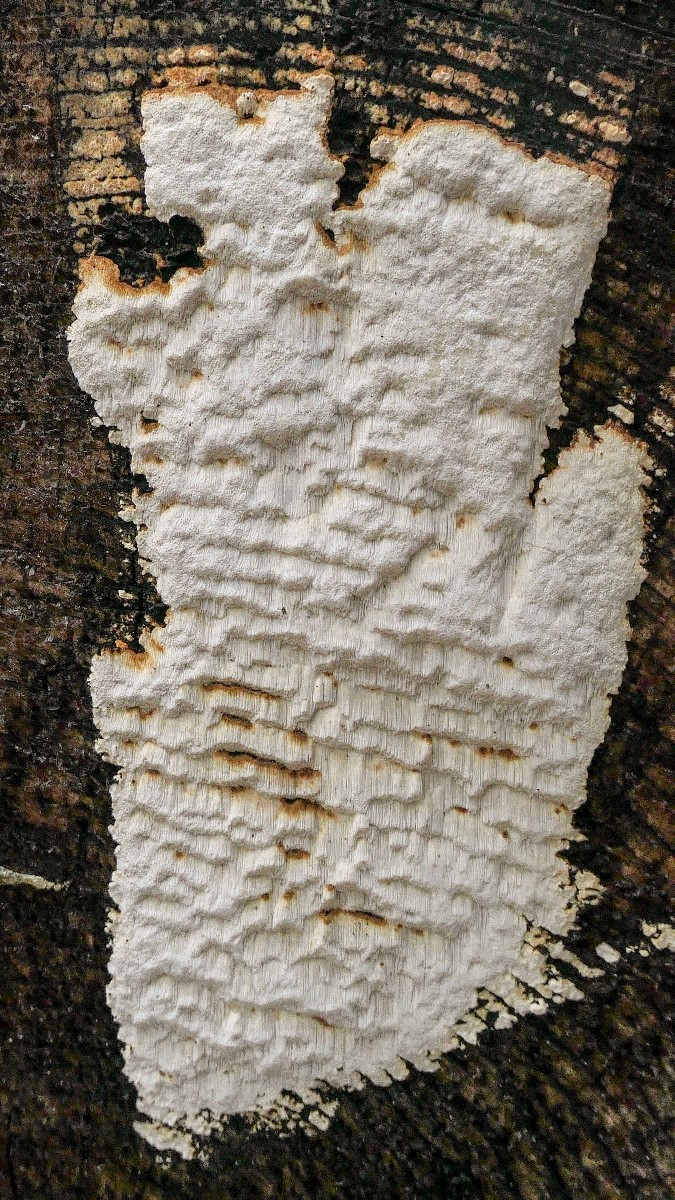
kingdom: Fungi
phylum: Basidiomycota
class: Agaricomycetes
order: Polyporales
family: Fomitopsidaceae
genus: Neoantrodia
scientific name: Neoantrodia serialis
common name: række-sejporesvamp
